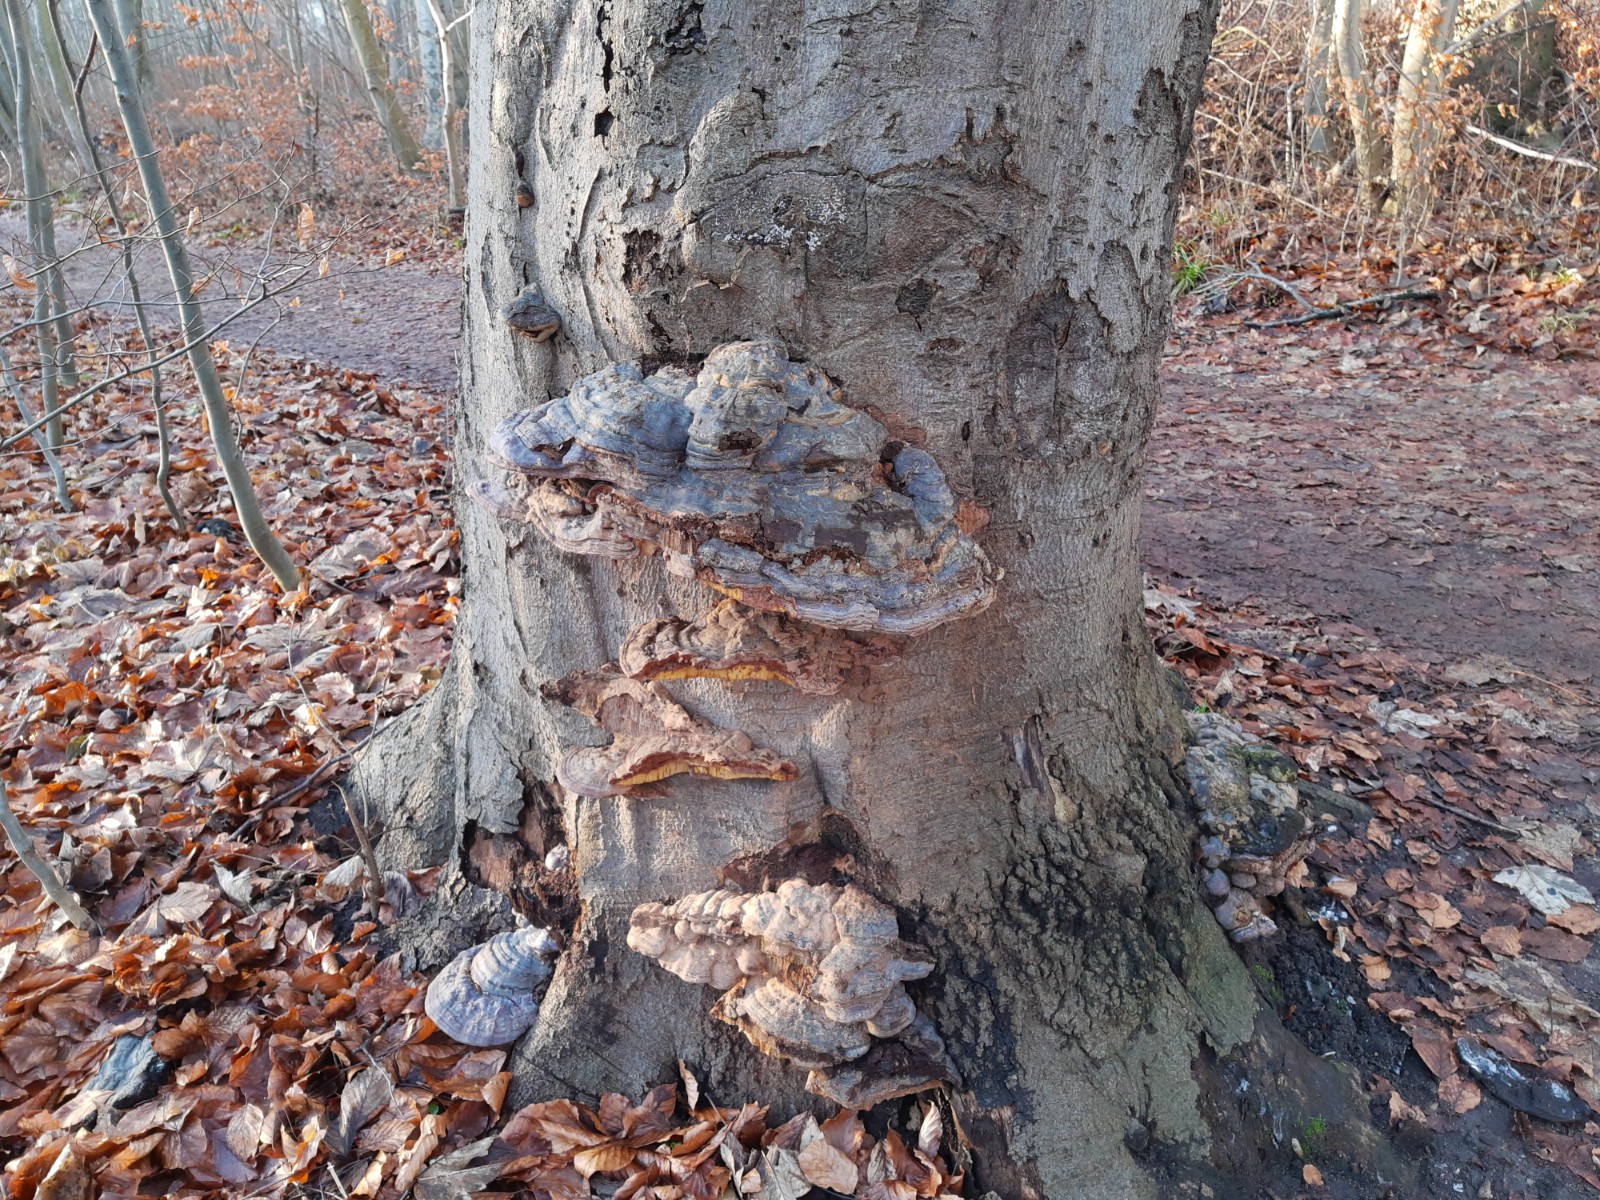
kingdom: Fungi
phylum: Basidiomycota
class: Agaricomycetes
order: Polyporales
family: Polyporaceae
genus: Ganoderma
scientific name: Ganoderma pfeifferi
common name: kobberrød lakporesvamp
